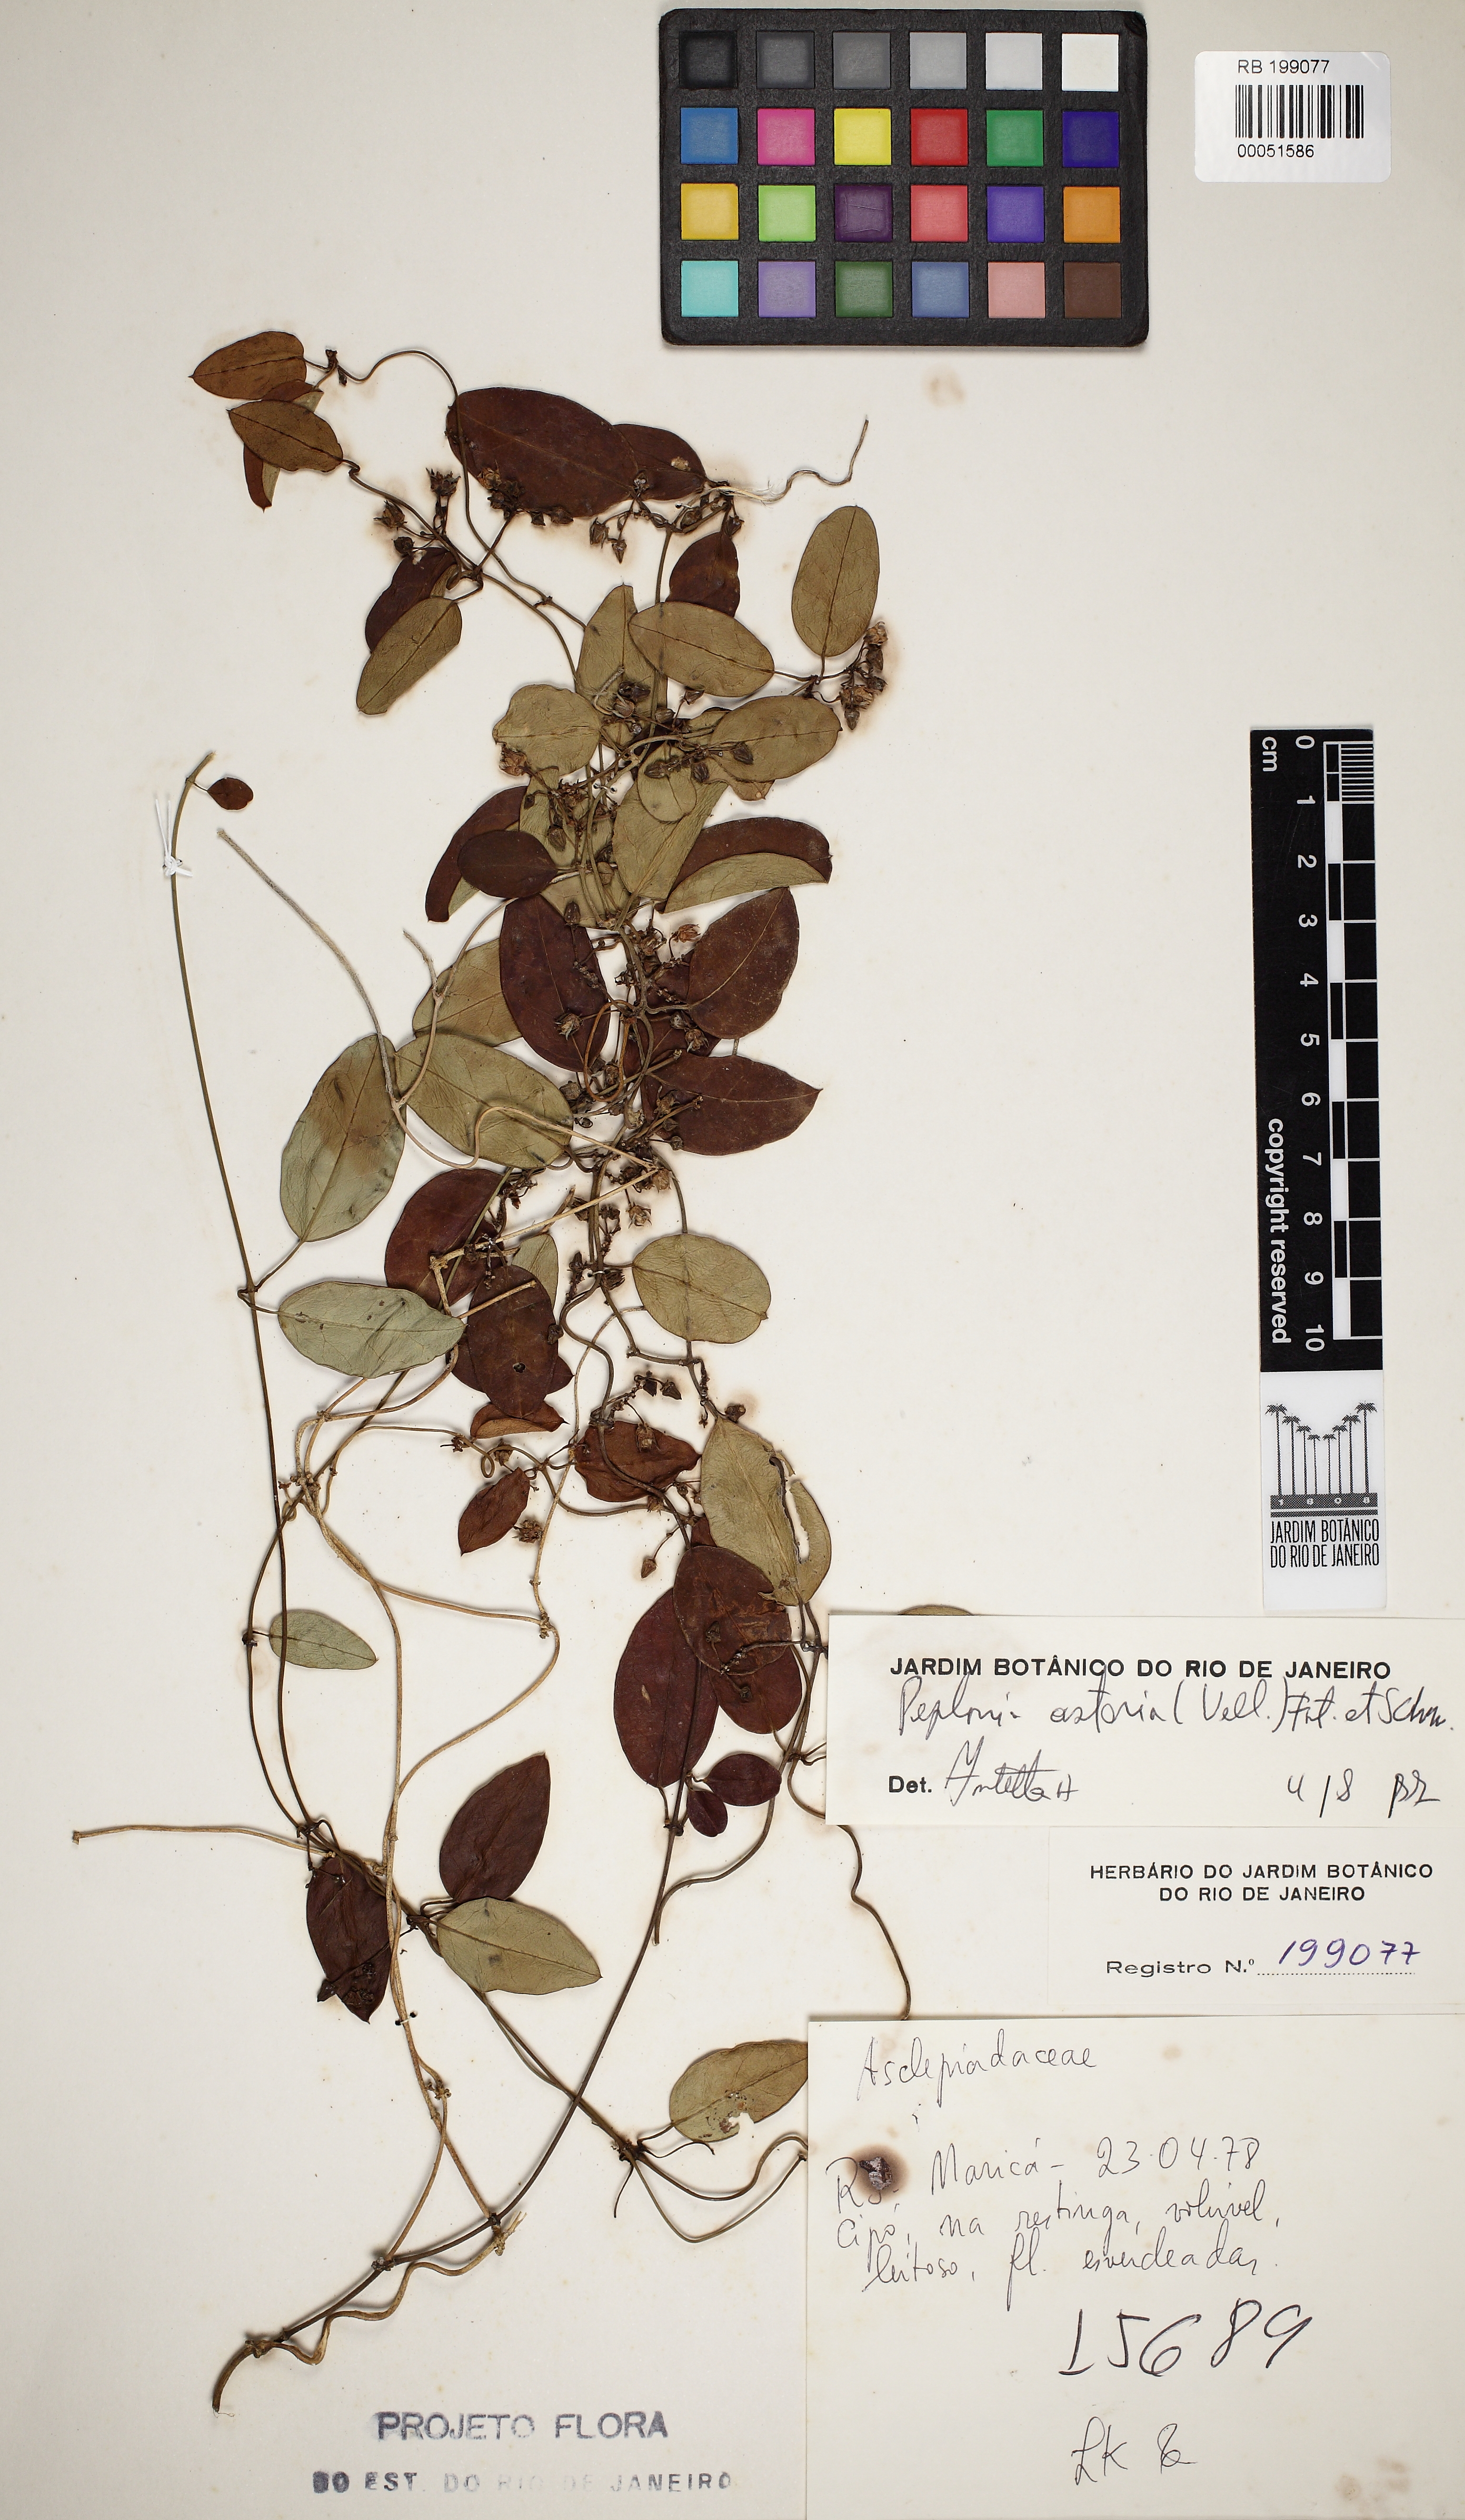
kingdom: Plantae
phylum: Tracheophyta
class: Magnoliopsida
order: Gentianales
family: Apocynaceae
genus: Peplonia
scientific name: Peplonia asteria
